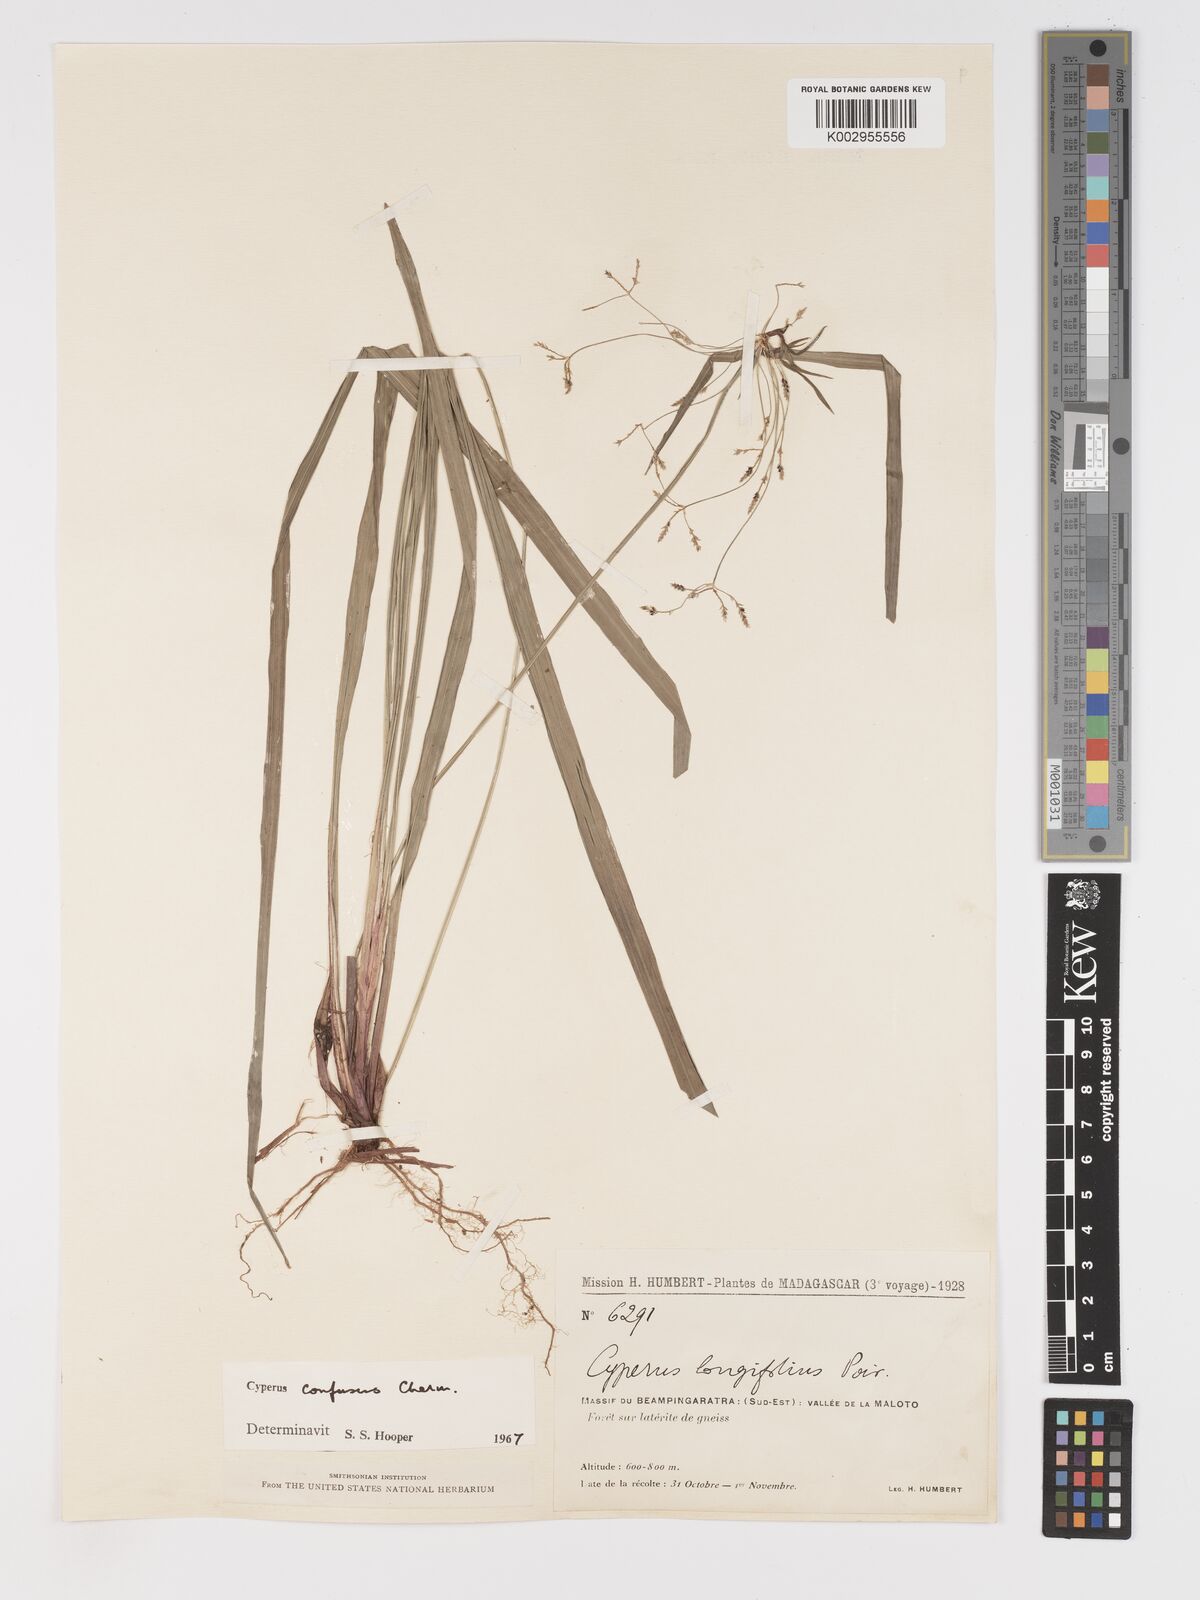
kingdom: Plantae
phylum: Tracheophyta
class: Liliopsida
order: Poales
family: Cyperaceae
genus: Cyperus
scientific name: Cyperus longifolius
